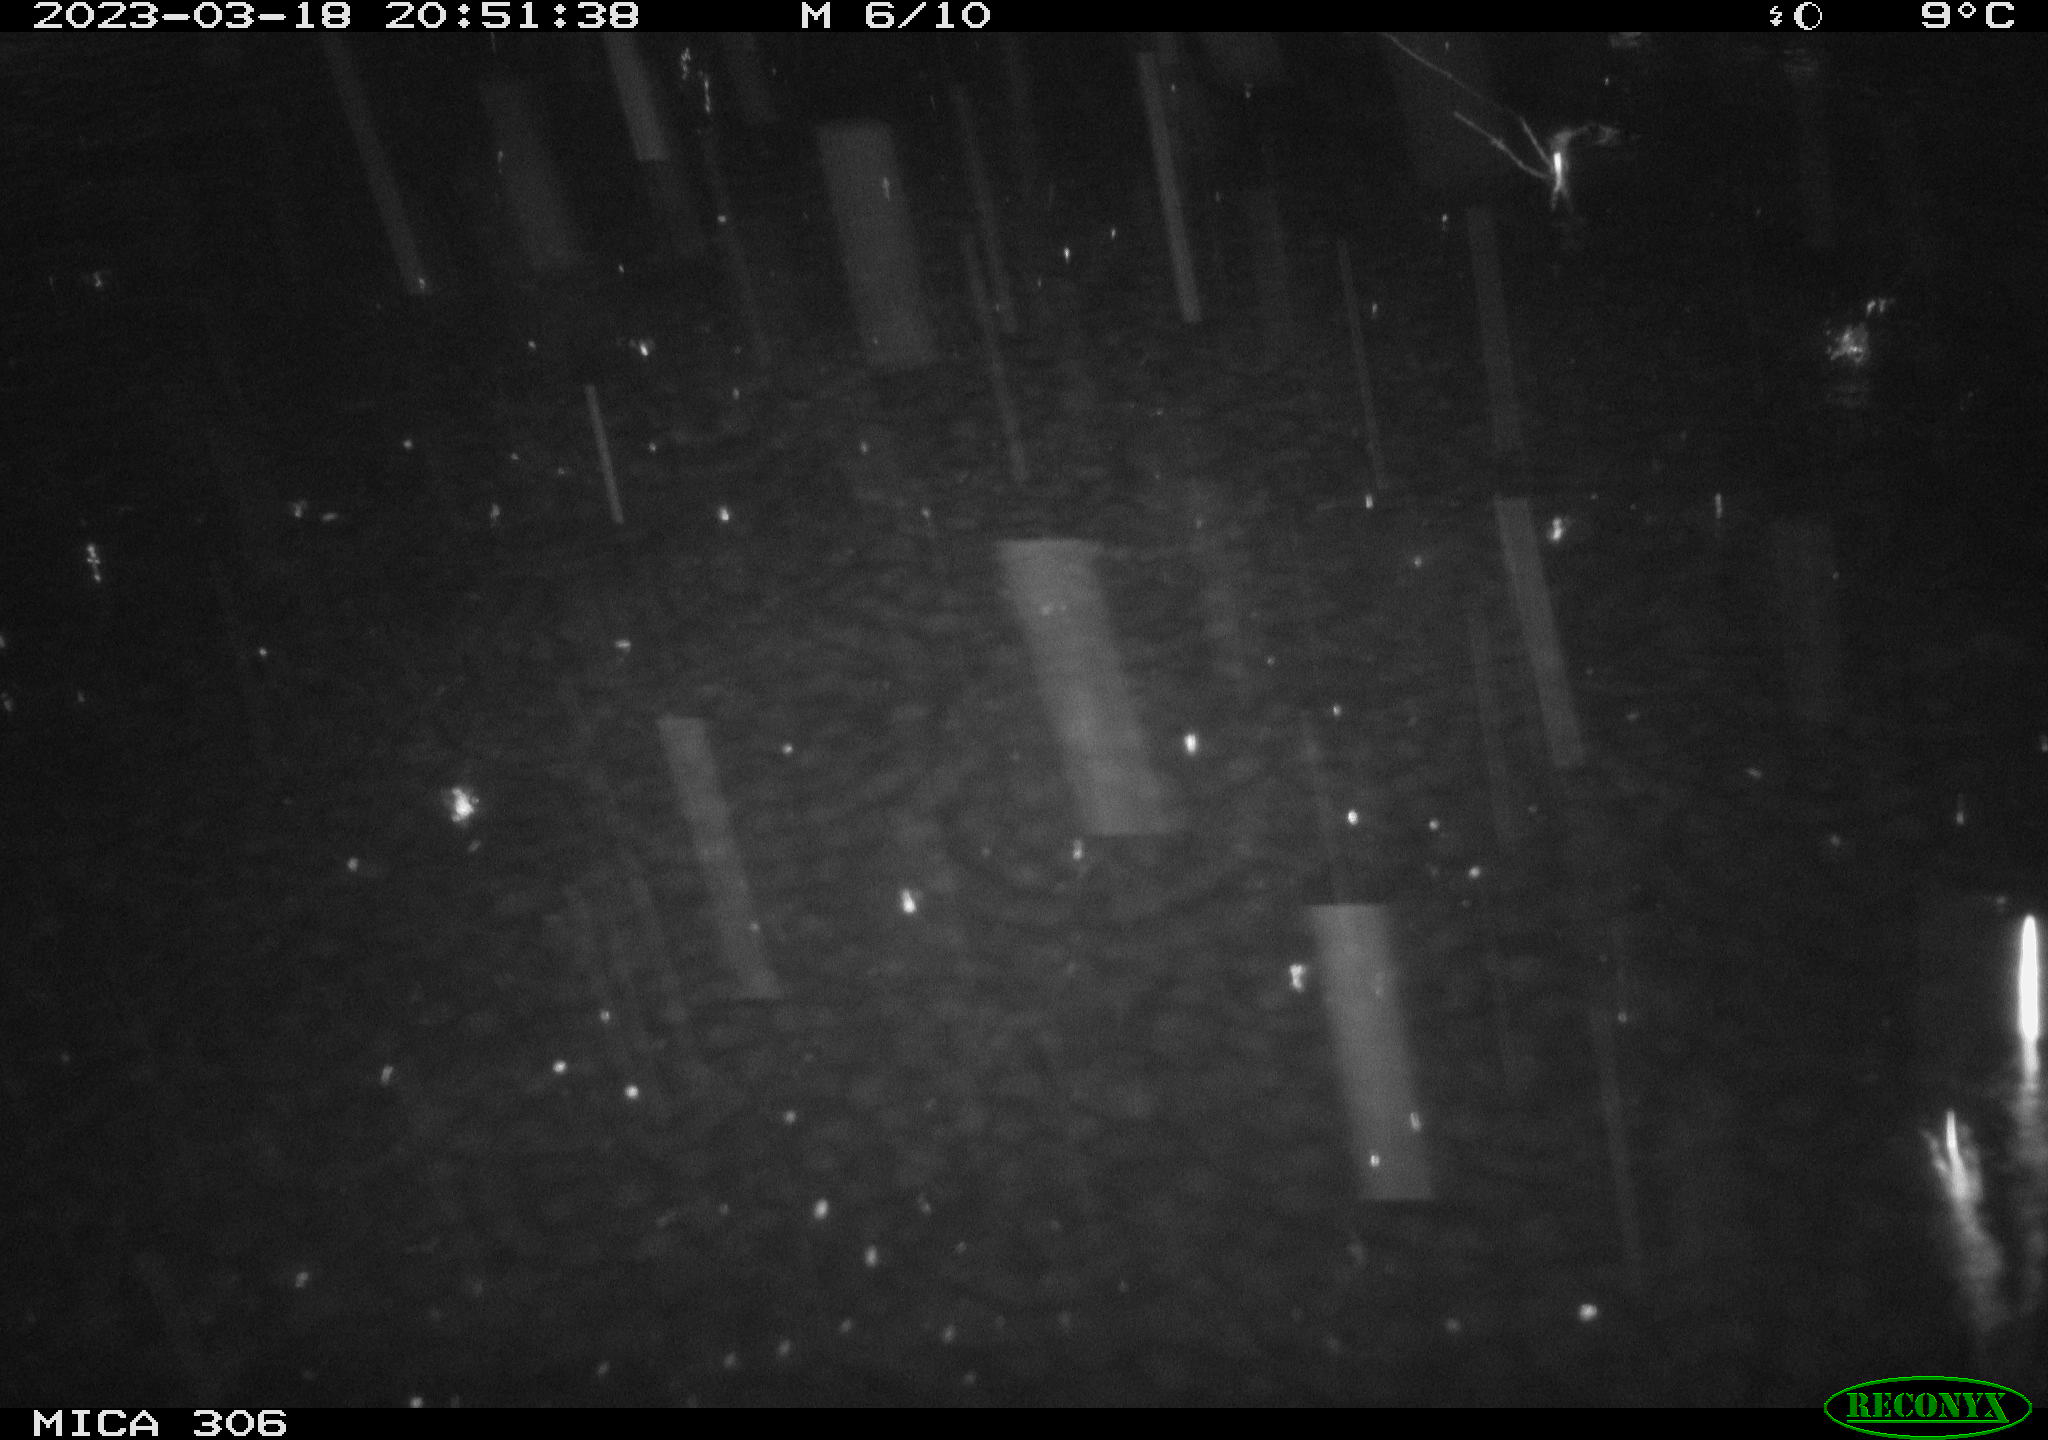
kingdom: Animalia
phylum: Chordata
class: Mammalia
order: Rodentia
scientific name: Rodentia
